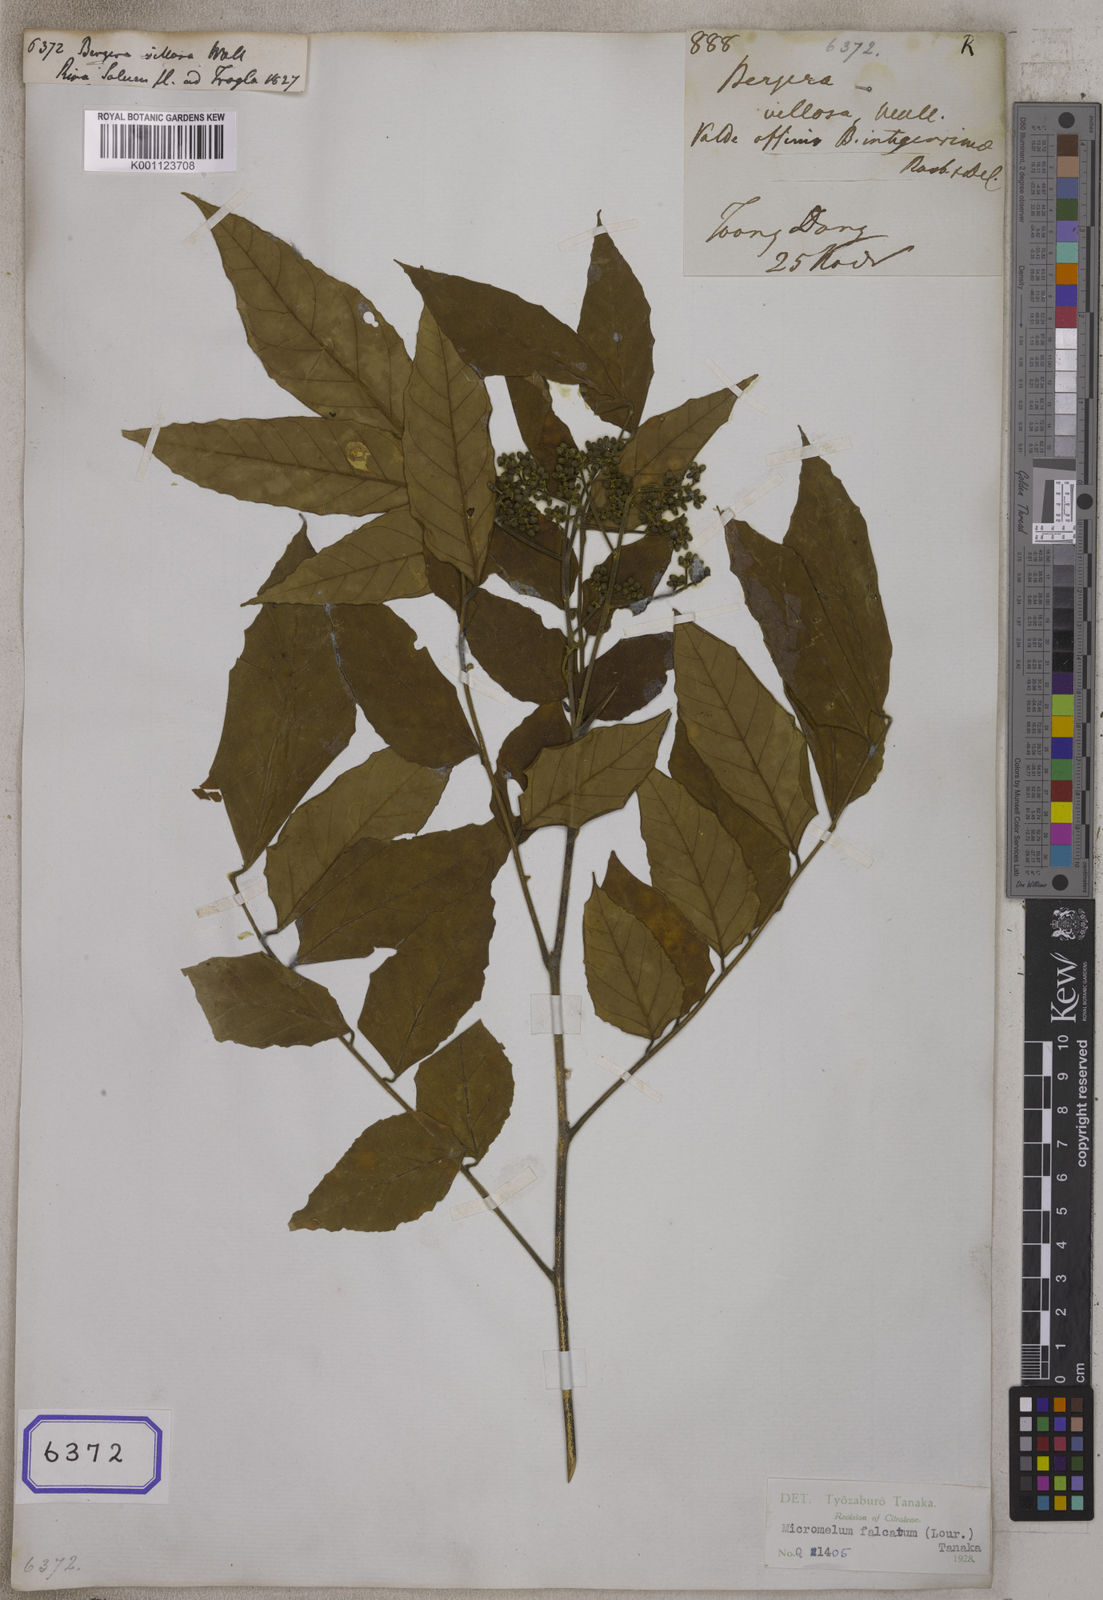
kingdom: Plantae
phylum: Tracheophyta
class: Magnoliopsida
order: Sapindales
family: Rutaceae
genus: Micromelum
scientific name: Micromelum minutum
